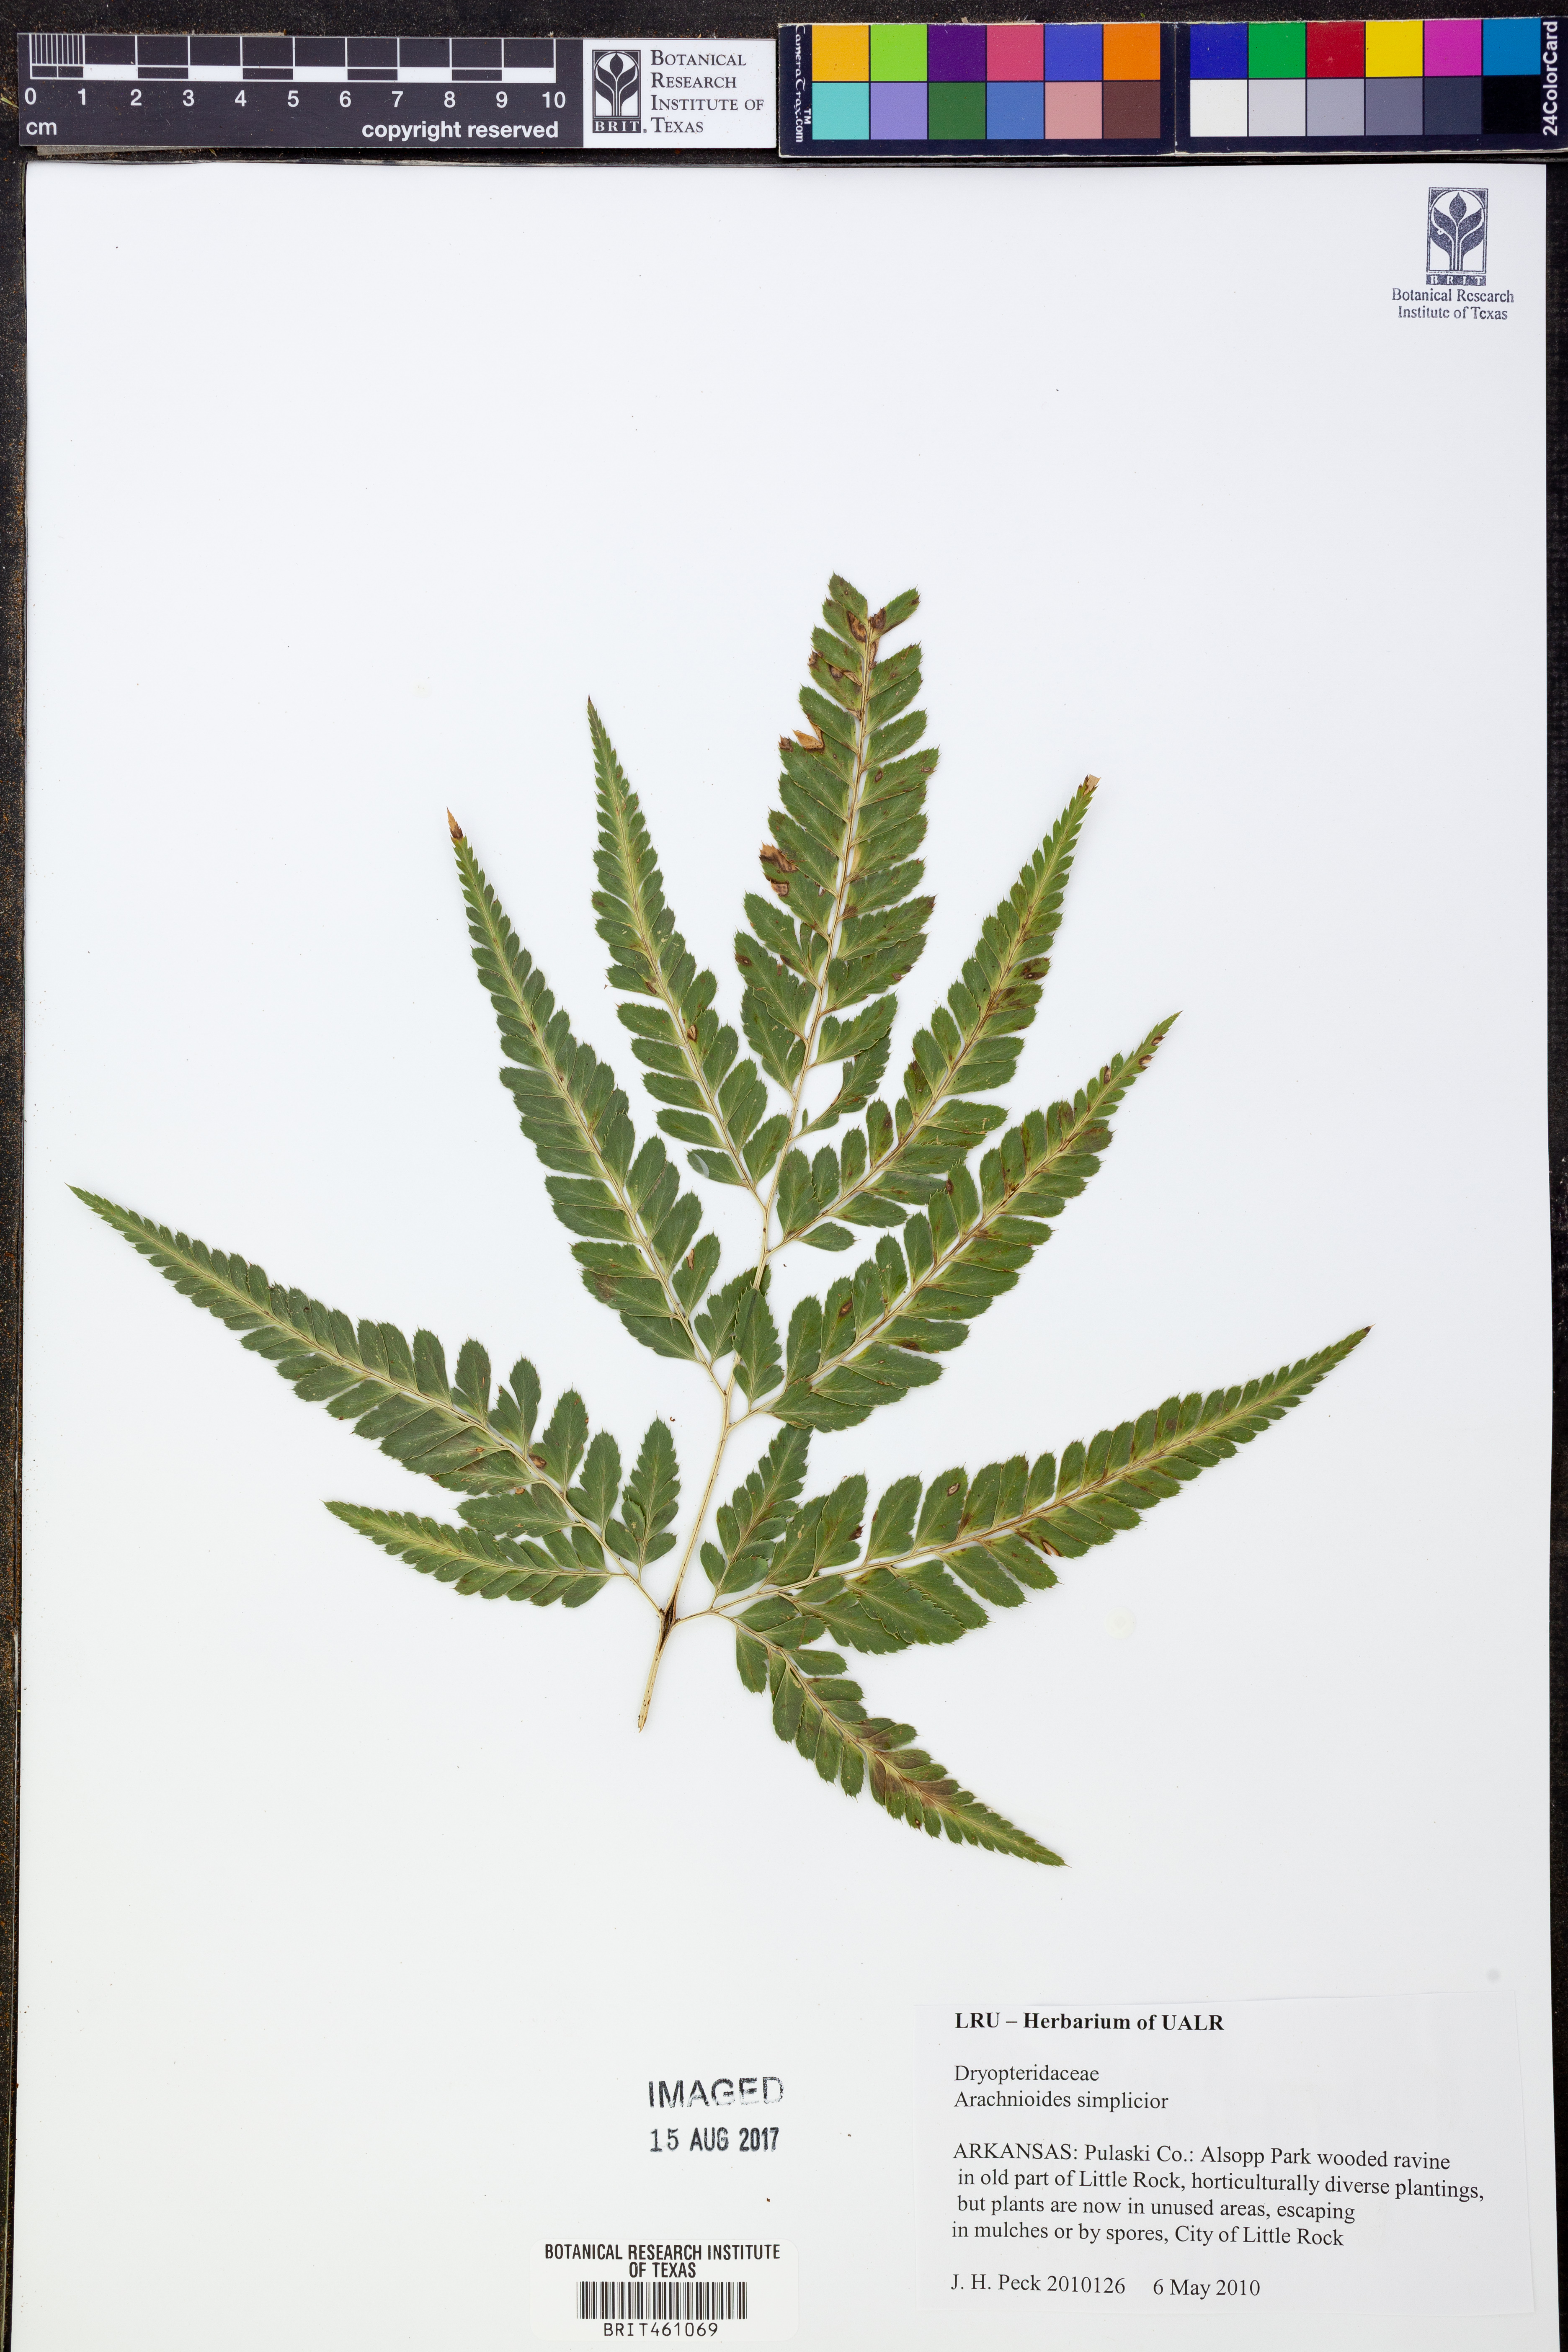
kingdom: Plantae
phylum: Tracheophyta
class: Polypodiopsida
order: Polypodiales
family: Dryopteridaceae
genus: Arachniodes
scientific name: Arachniodes simplicior
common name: Simpler hollyfern
